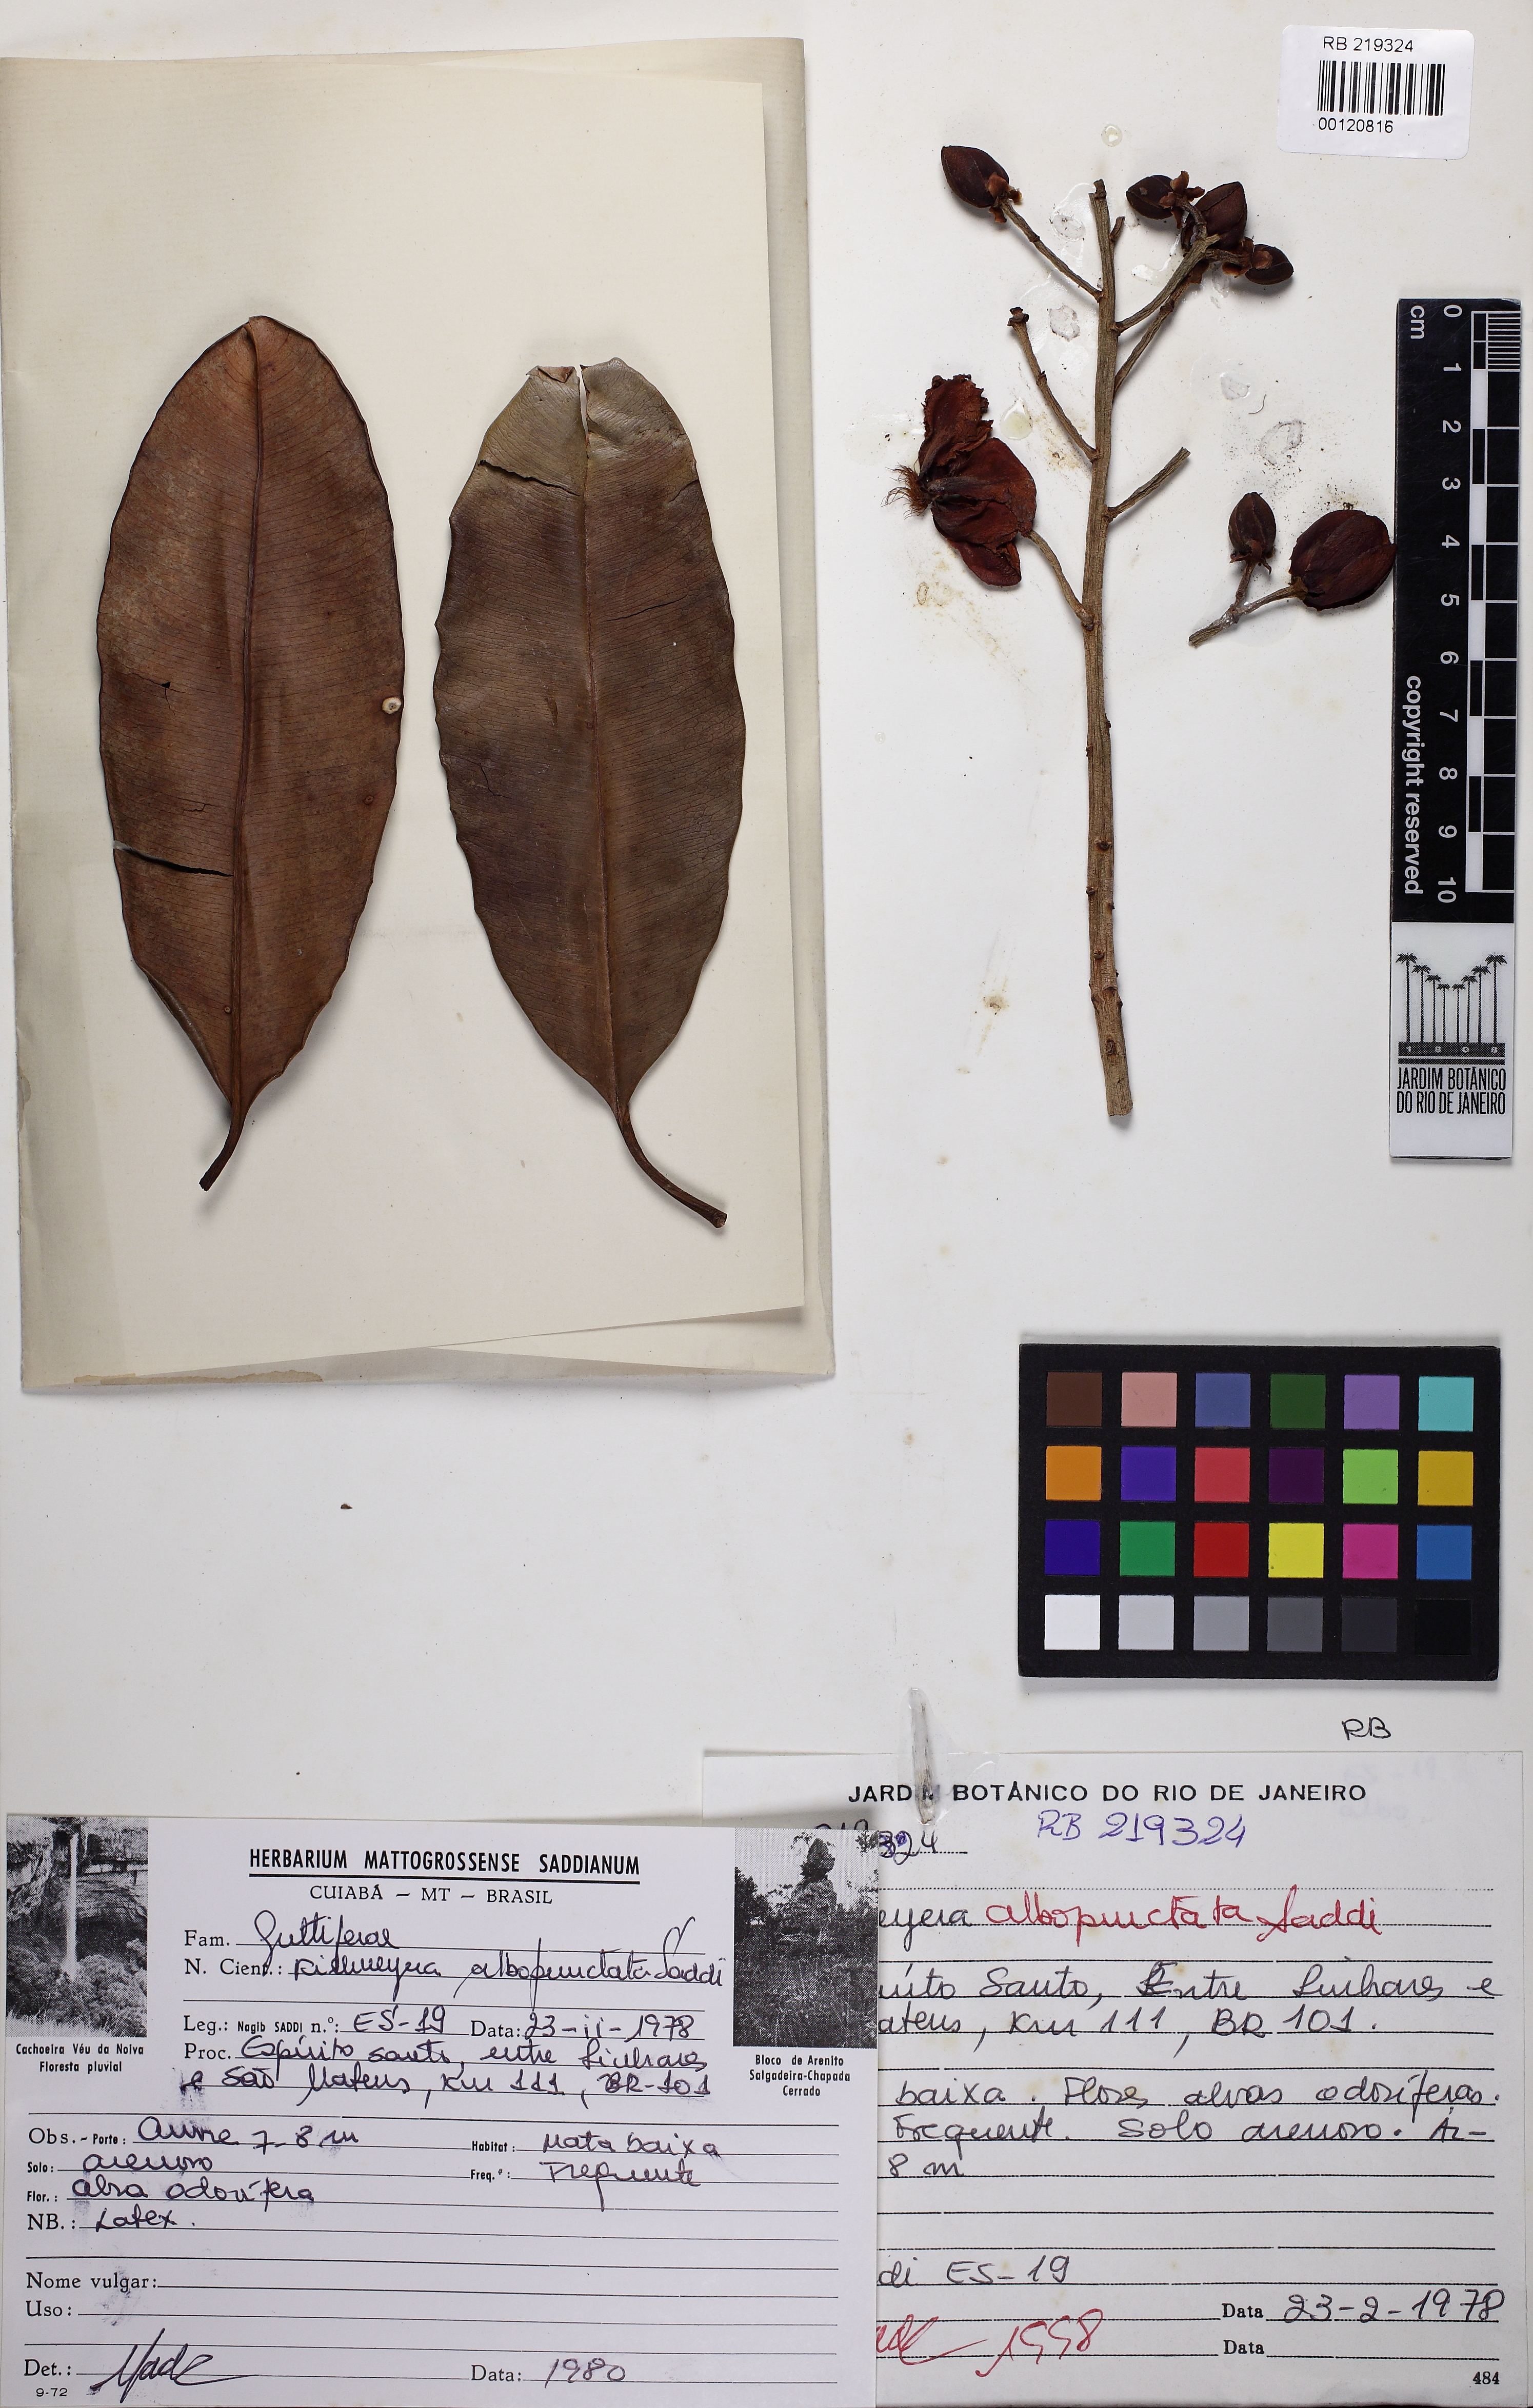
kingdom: Plantae
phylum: Tracheophyta
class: Magnoliopsida
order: Malpighiales
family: Calophyllaceae
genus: Kielmeyera
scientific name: Kielmeyera albopunctata
